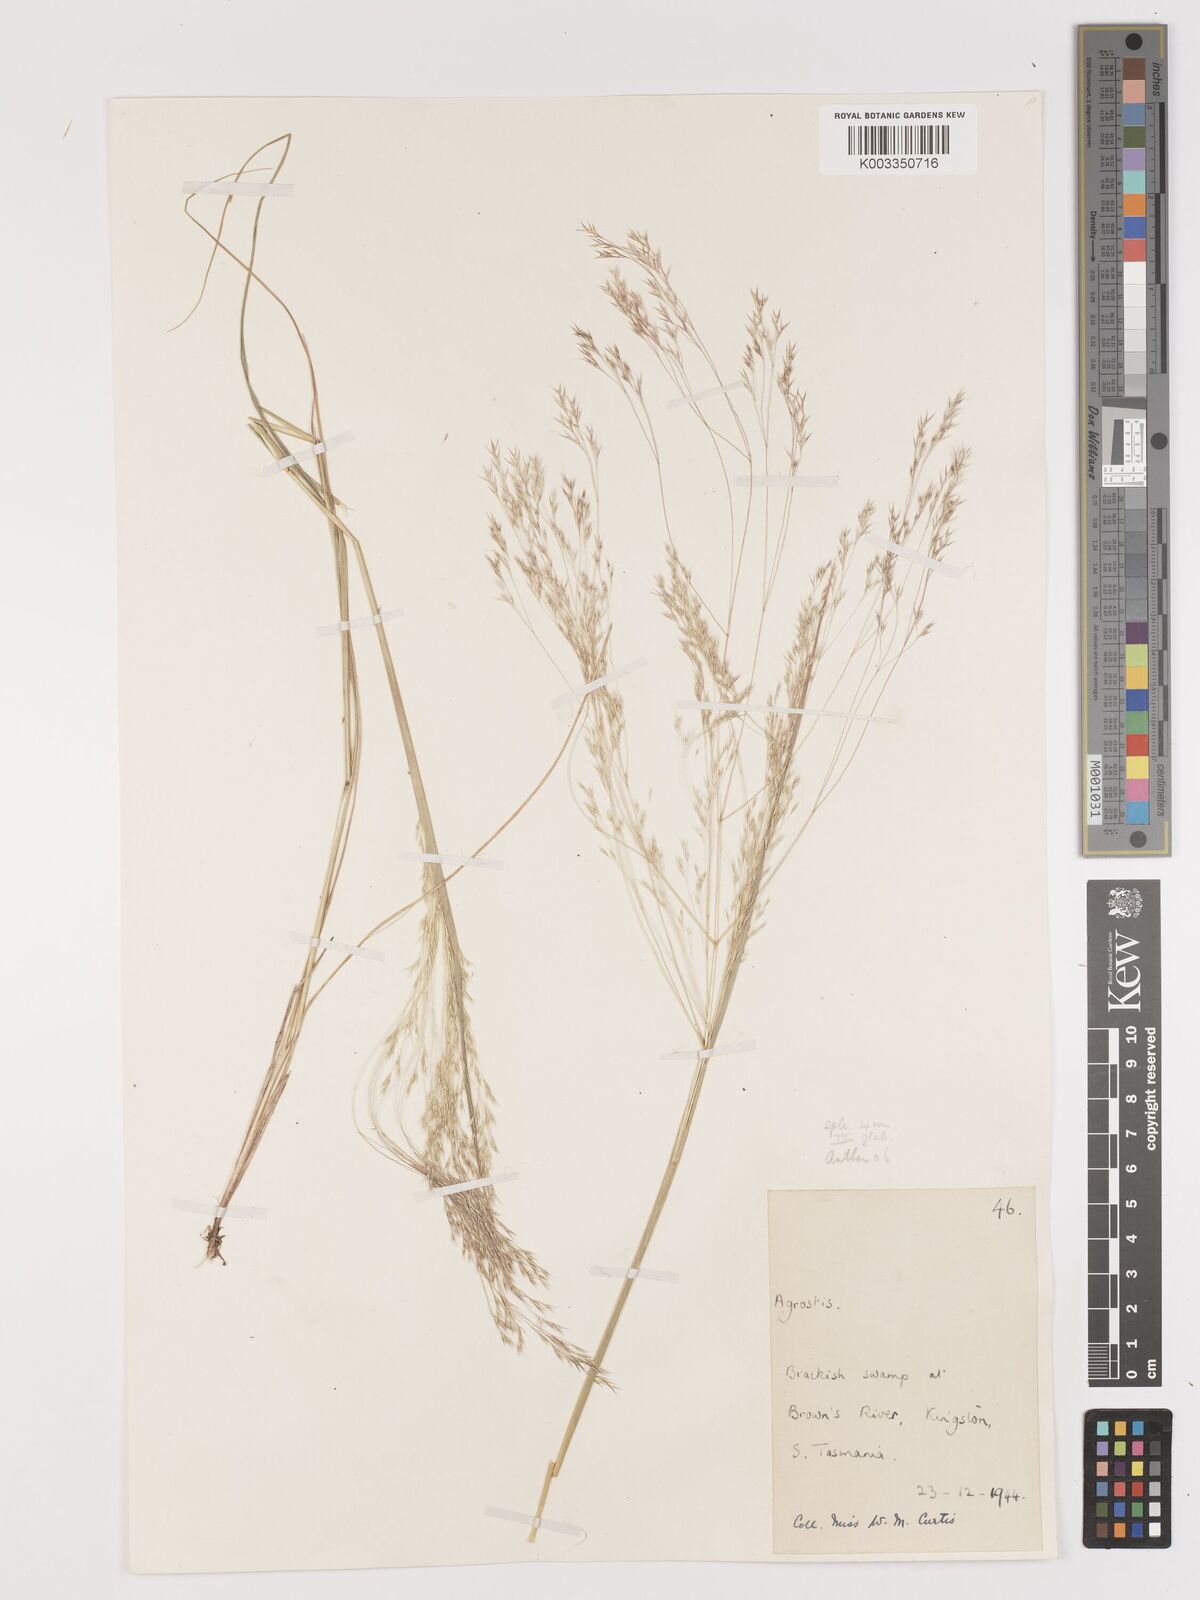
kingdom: Plantae
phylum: Tracheophyta
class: Liliopsida
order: Poales
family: Poaceae
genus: Lachnagrostis
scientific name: Lachnagrostis billardierei
